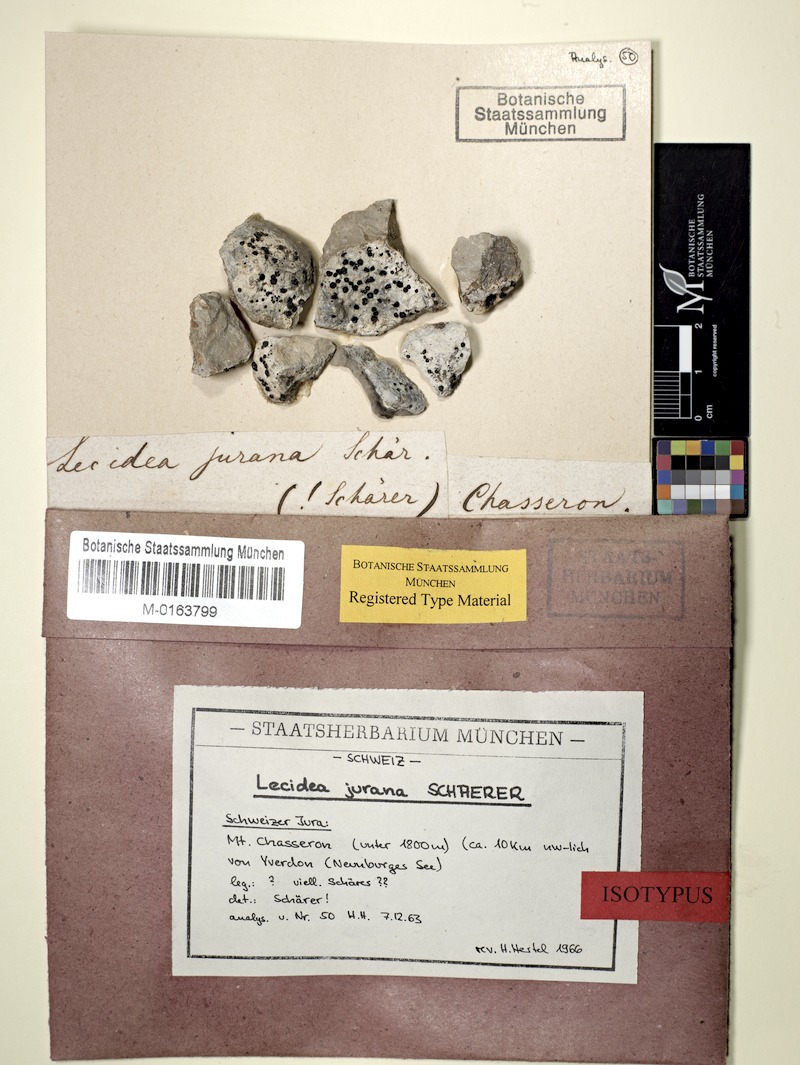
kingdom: Fungi
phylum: Ascomycota
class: Lecanoromycetes
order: Lecideales
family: Lecideaceae
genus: Farnoldia
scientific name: Farnoldia jurana
